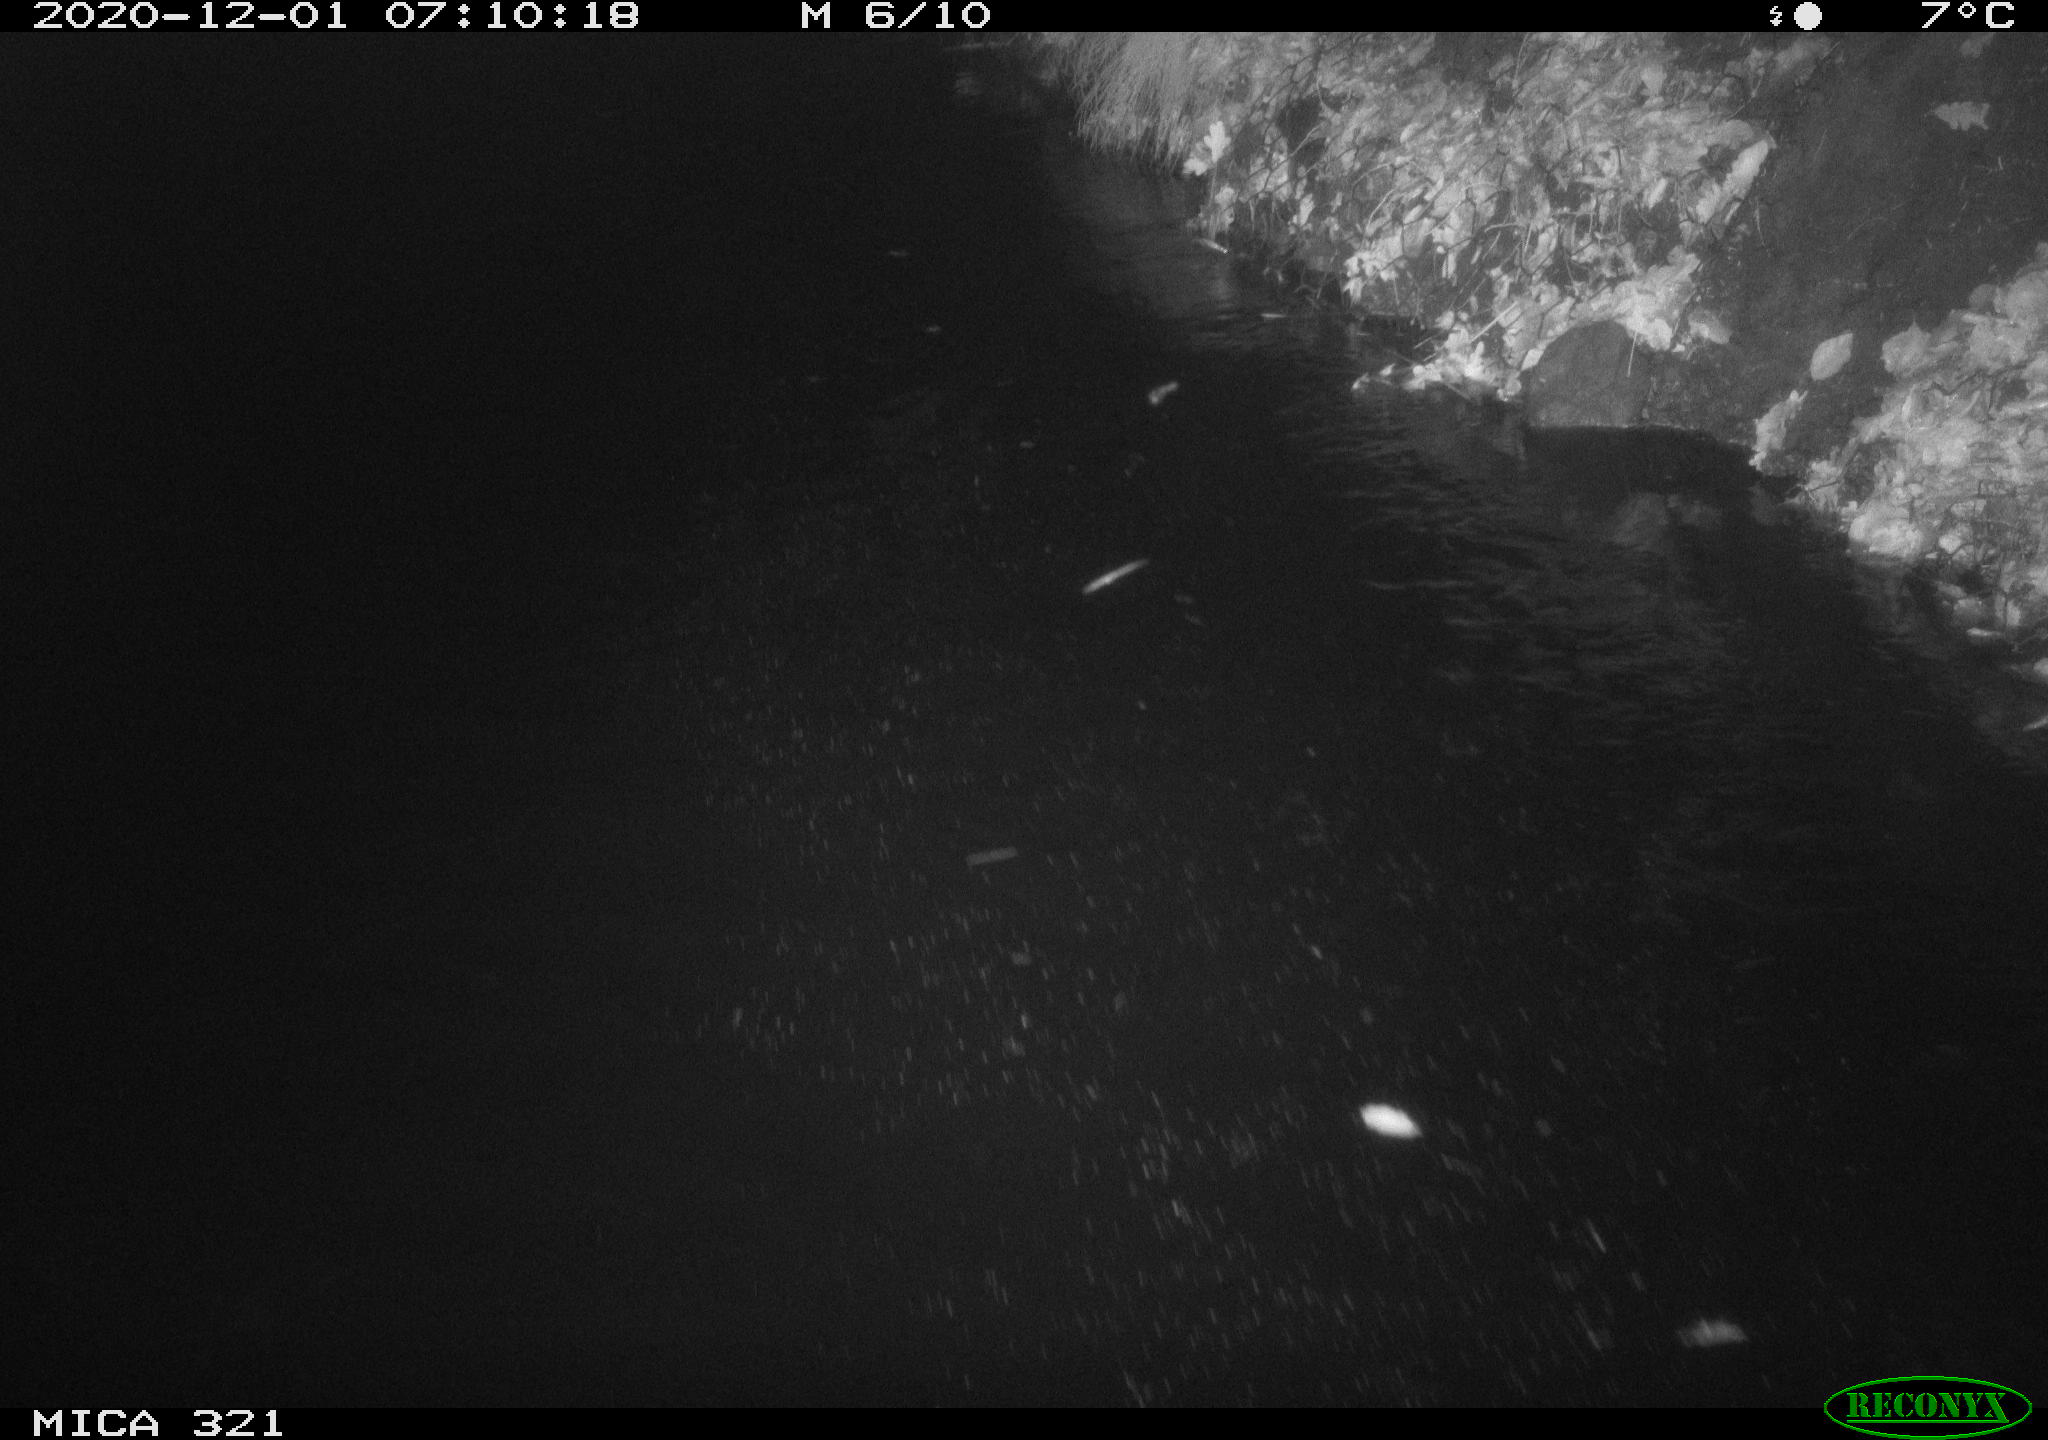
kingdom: Animalia
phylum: Chordata
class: Aves
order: Anseriformes
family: Anatidae
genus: Anas
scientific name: Anas platyrhynchos
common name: Mallard
